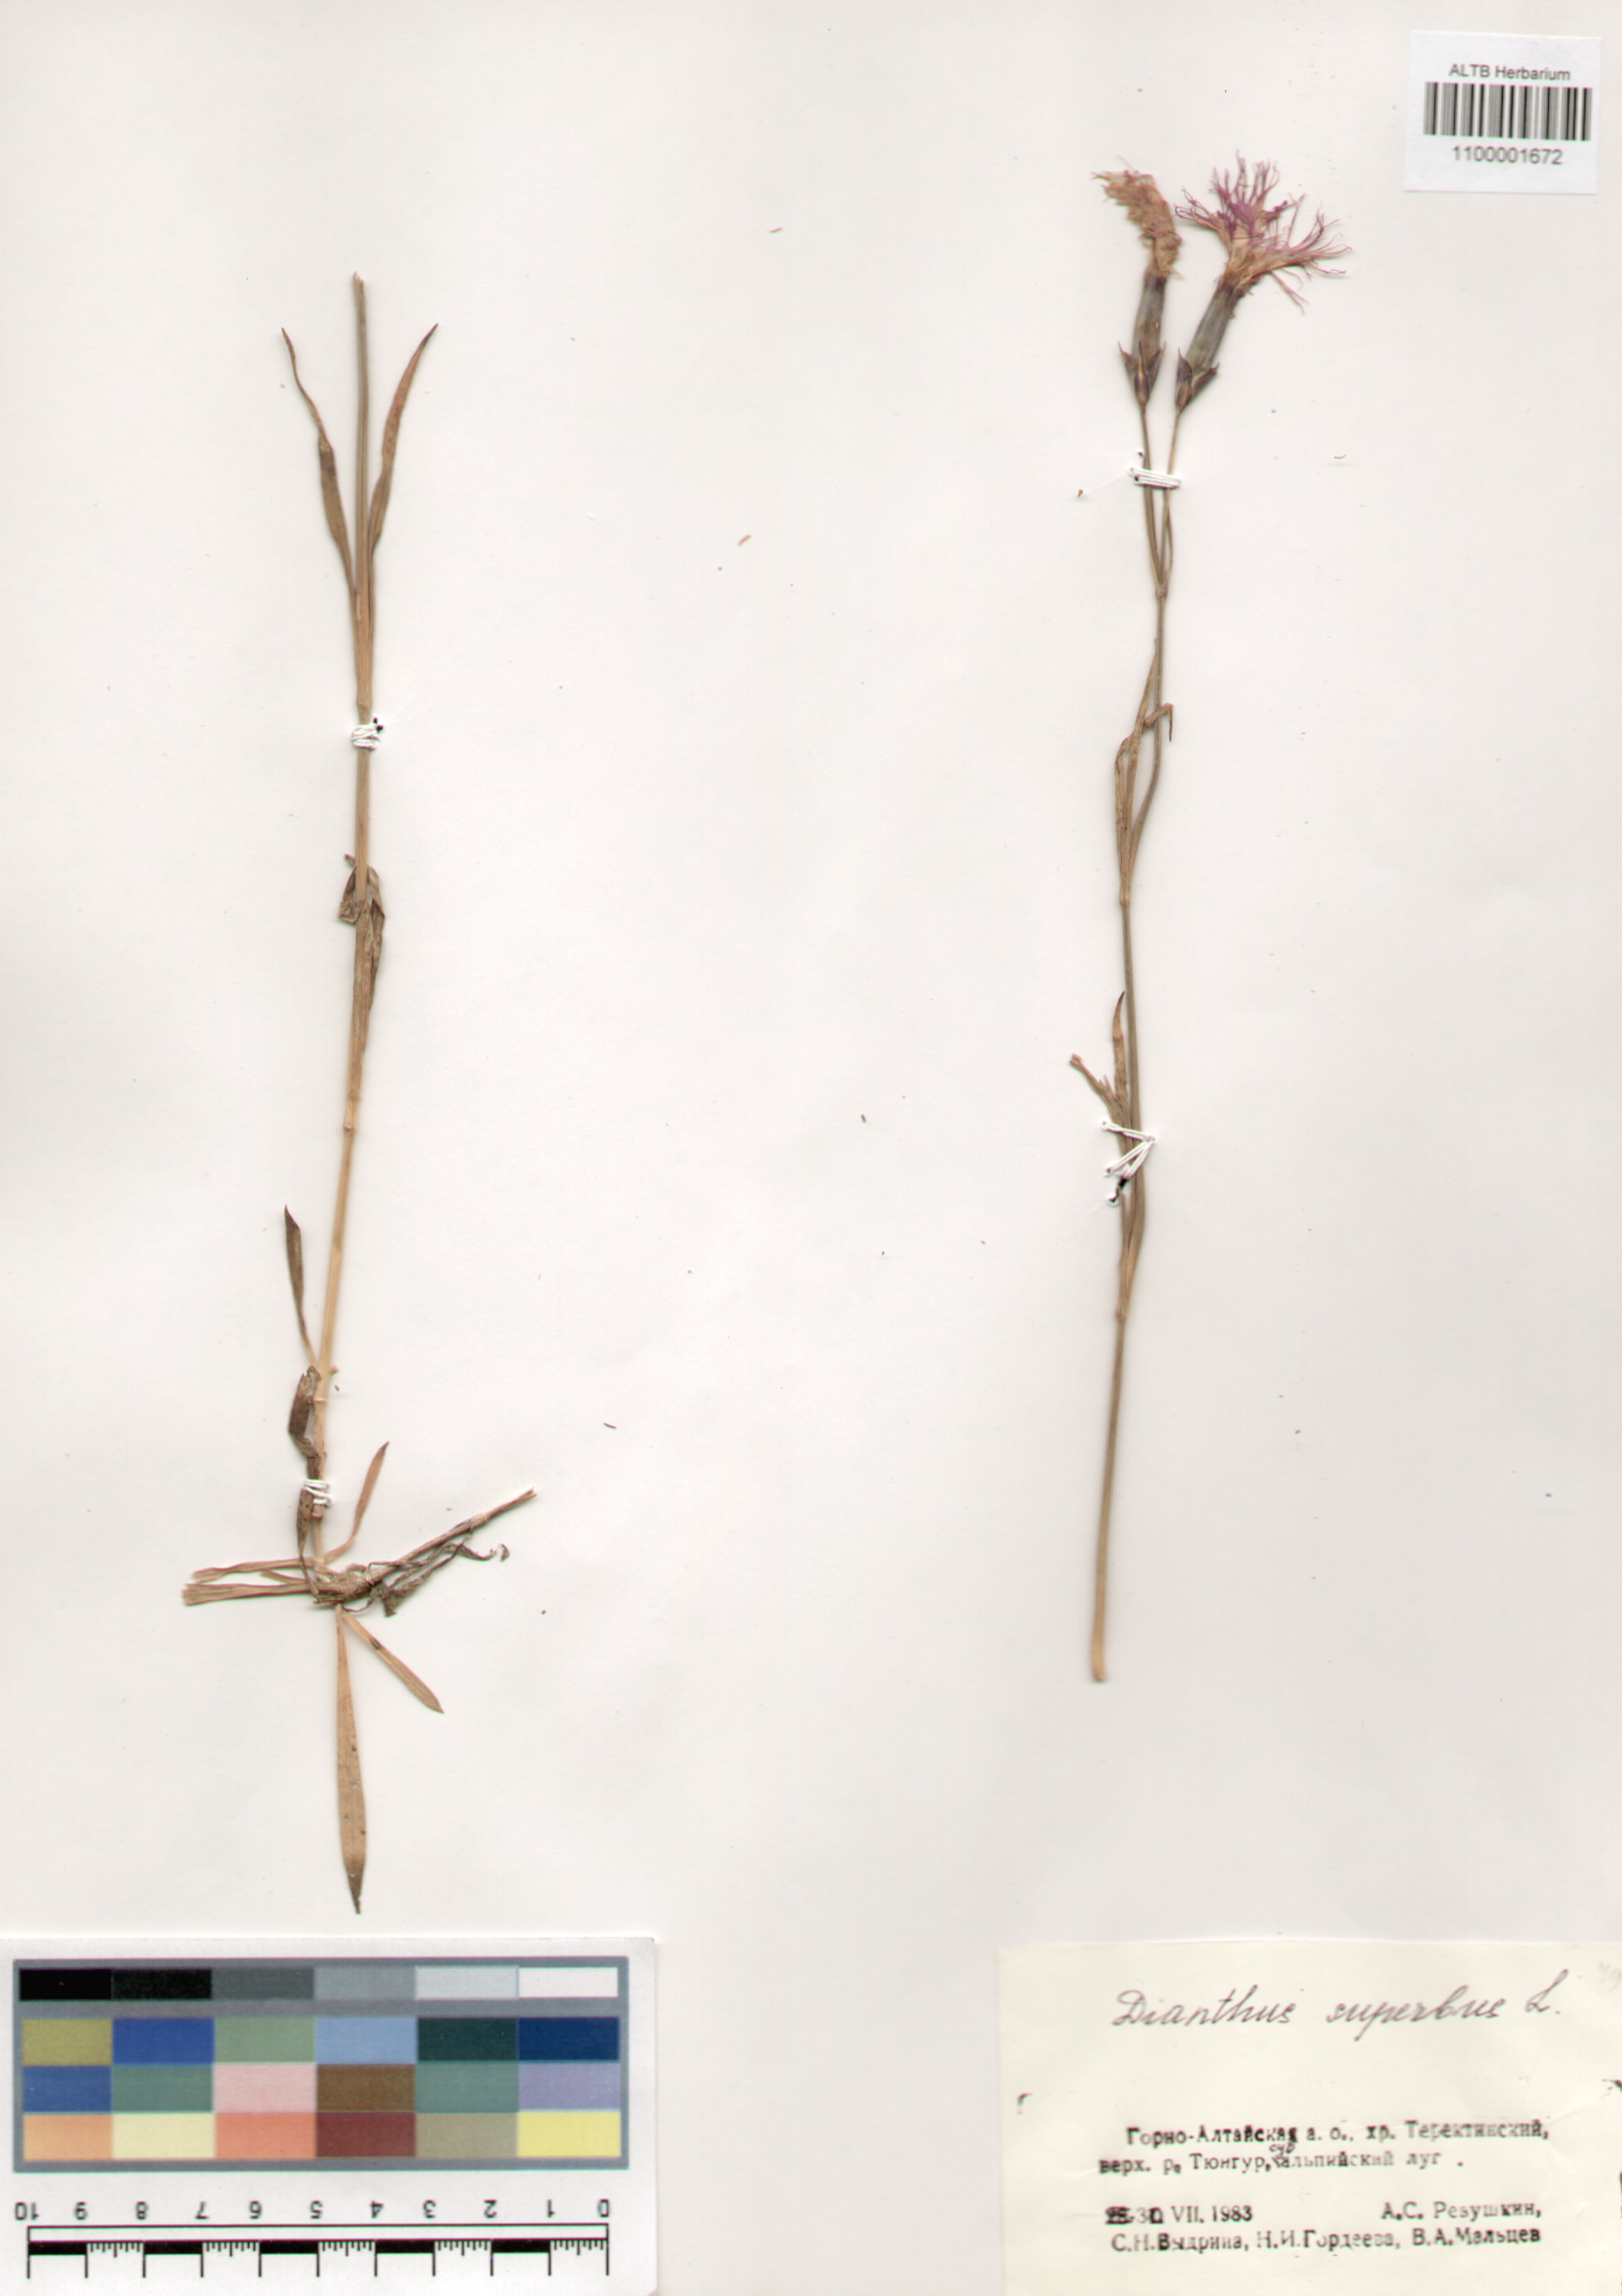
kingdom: Plantae
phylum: Tracheophyta
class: Magnoliopsida
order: Caryophyllales
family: Caryophyllaceae
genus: Dianthus
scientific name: Dianthus superbus
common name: Fringed pink
